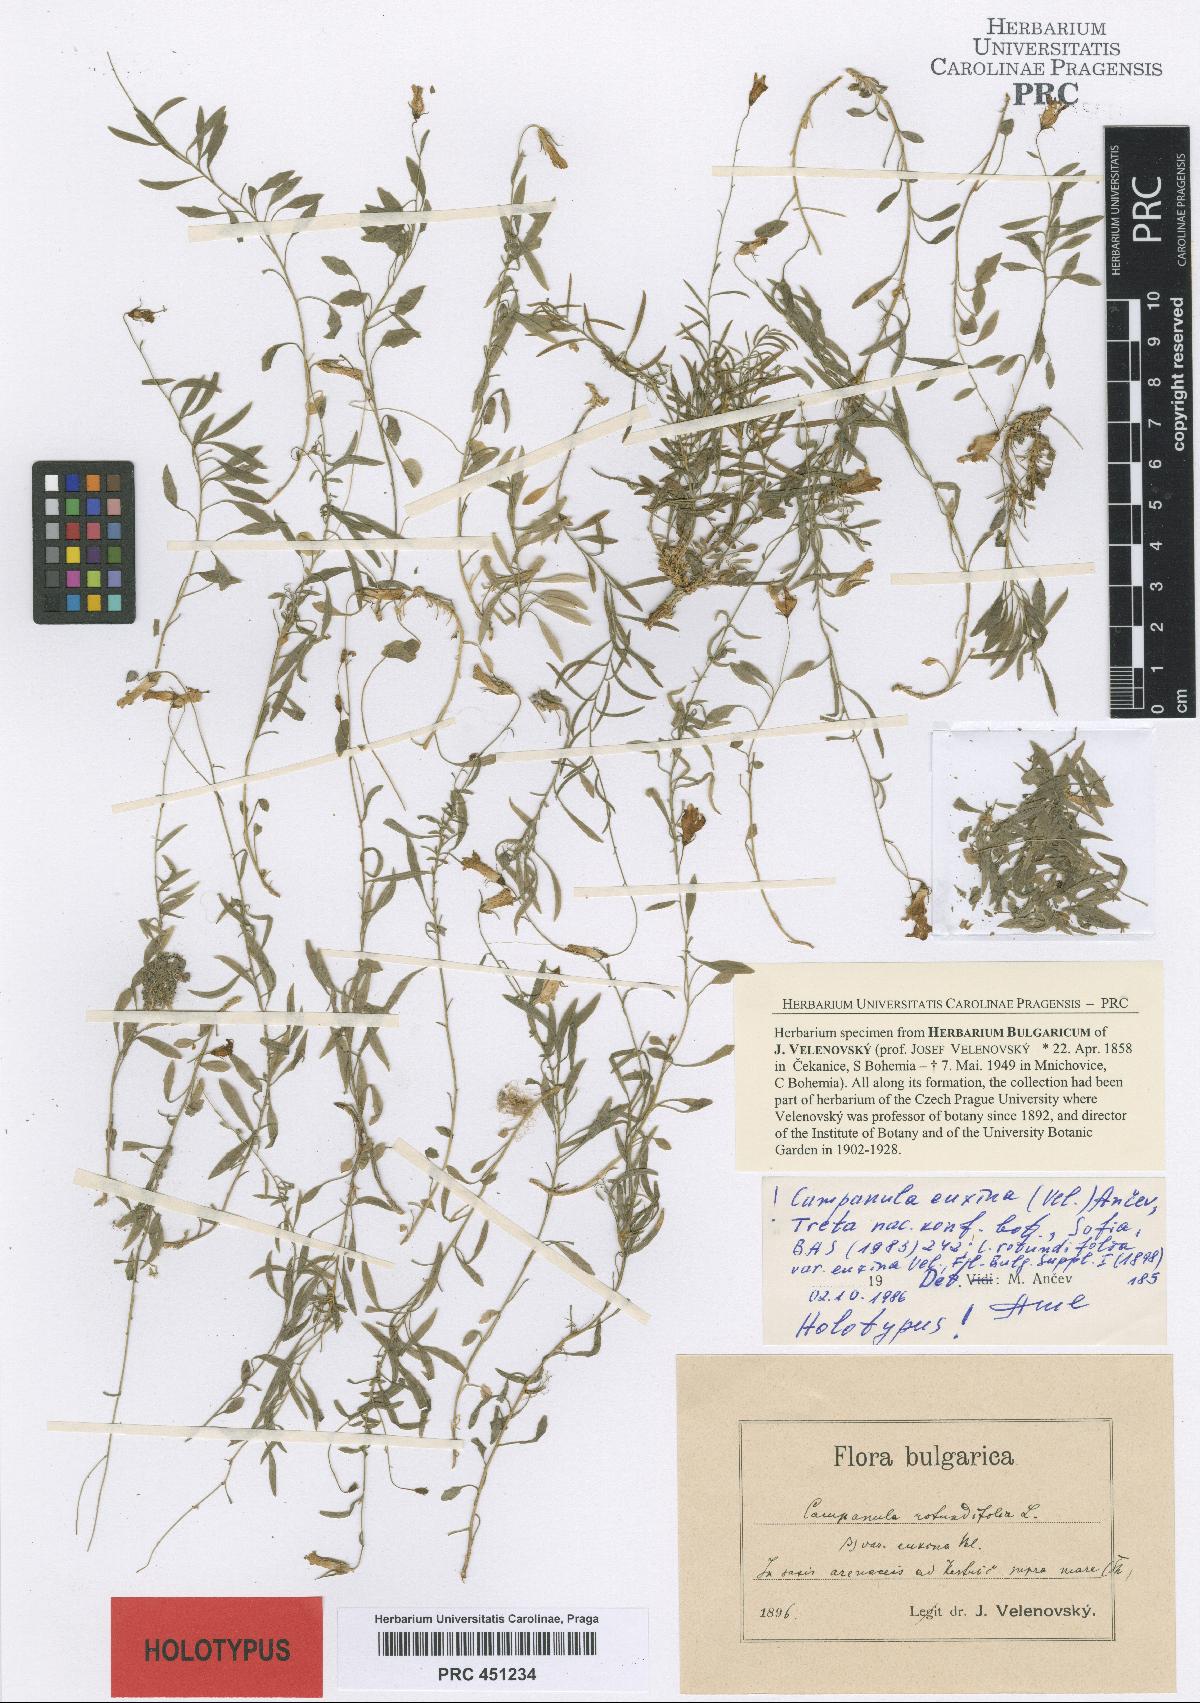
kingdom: Plantae
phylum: Tracheophyta
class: Magnoliopsida
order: Asterales
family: Campanulaceae
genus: Campanula
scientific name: Campanula rotundifolia
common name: Harebell
